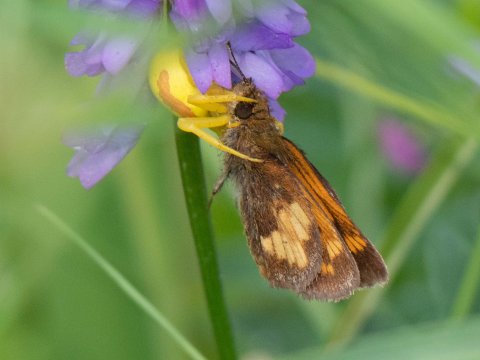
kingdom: Animalia
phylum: Arthropoda
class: Insecta
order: Lepidoptera
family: Hesperiidae
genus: Lon
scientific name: Lon hobomok
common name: Hobomok Skipper
